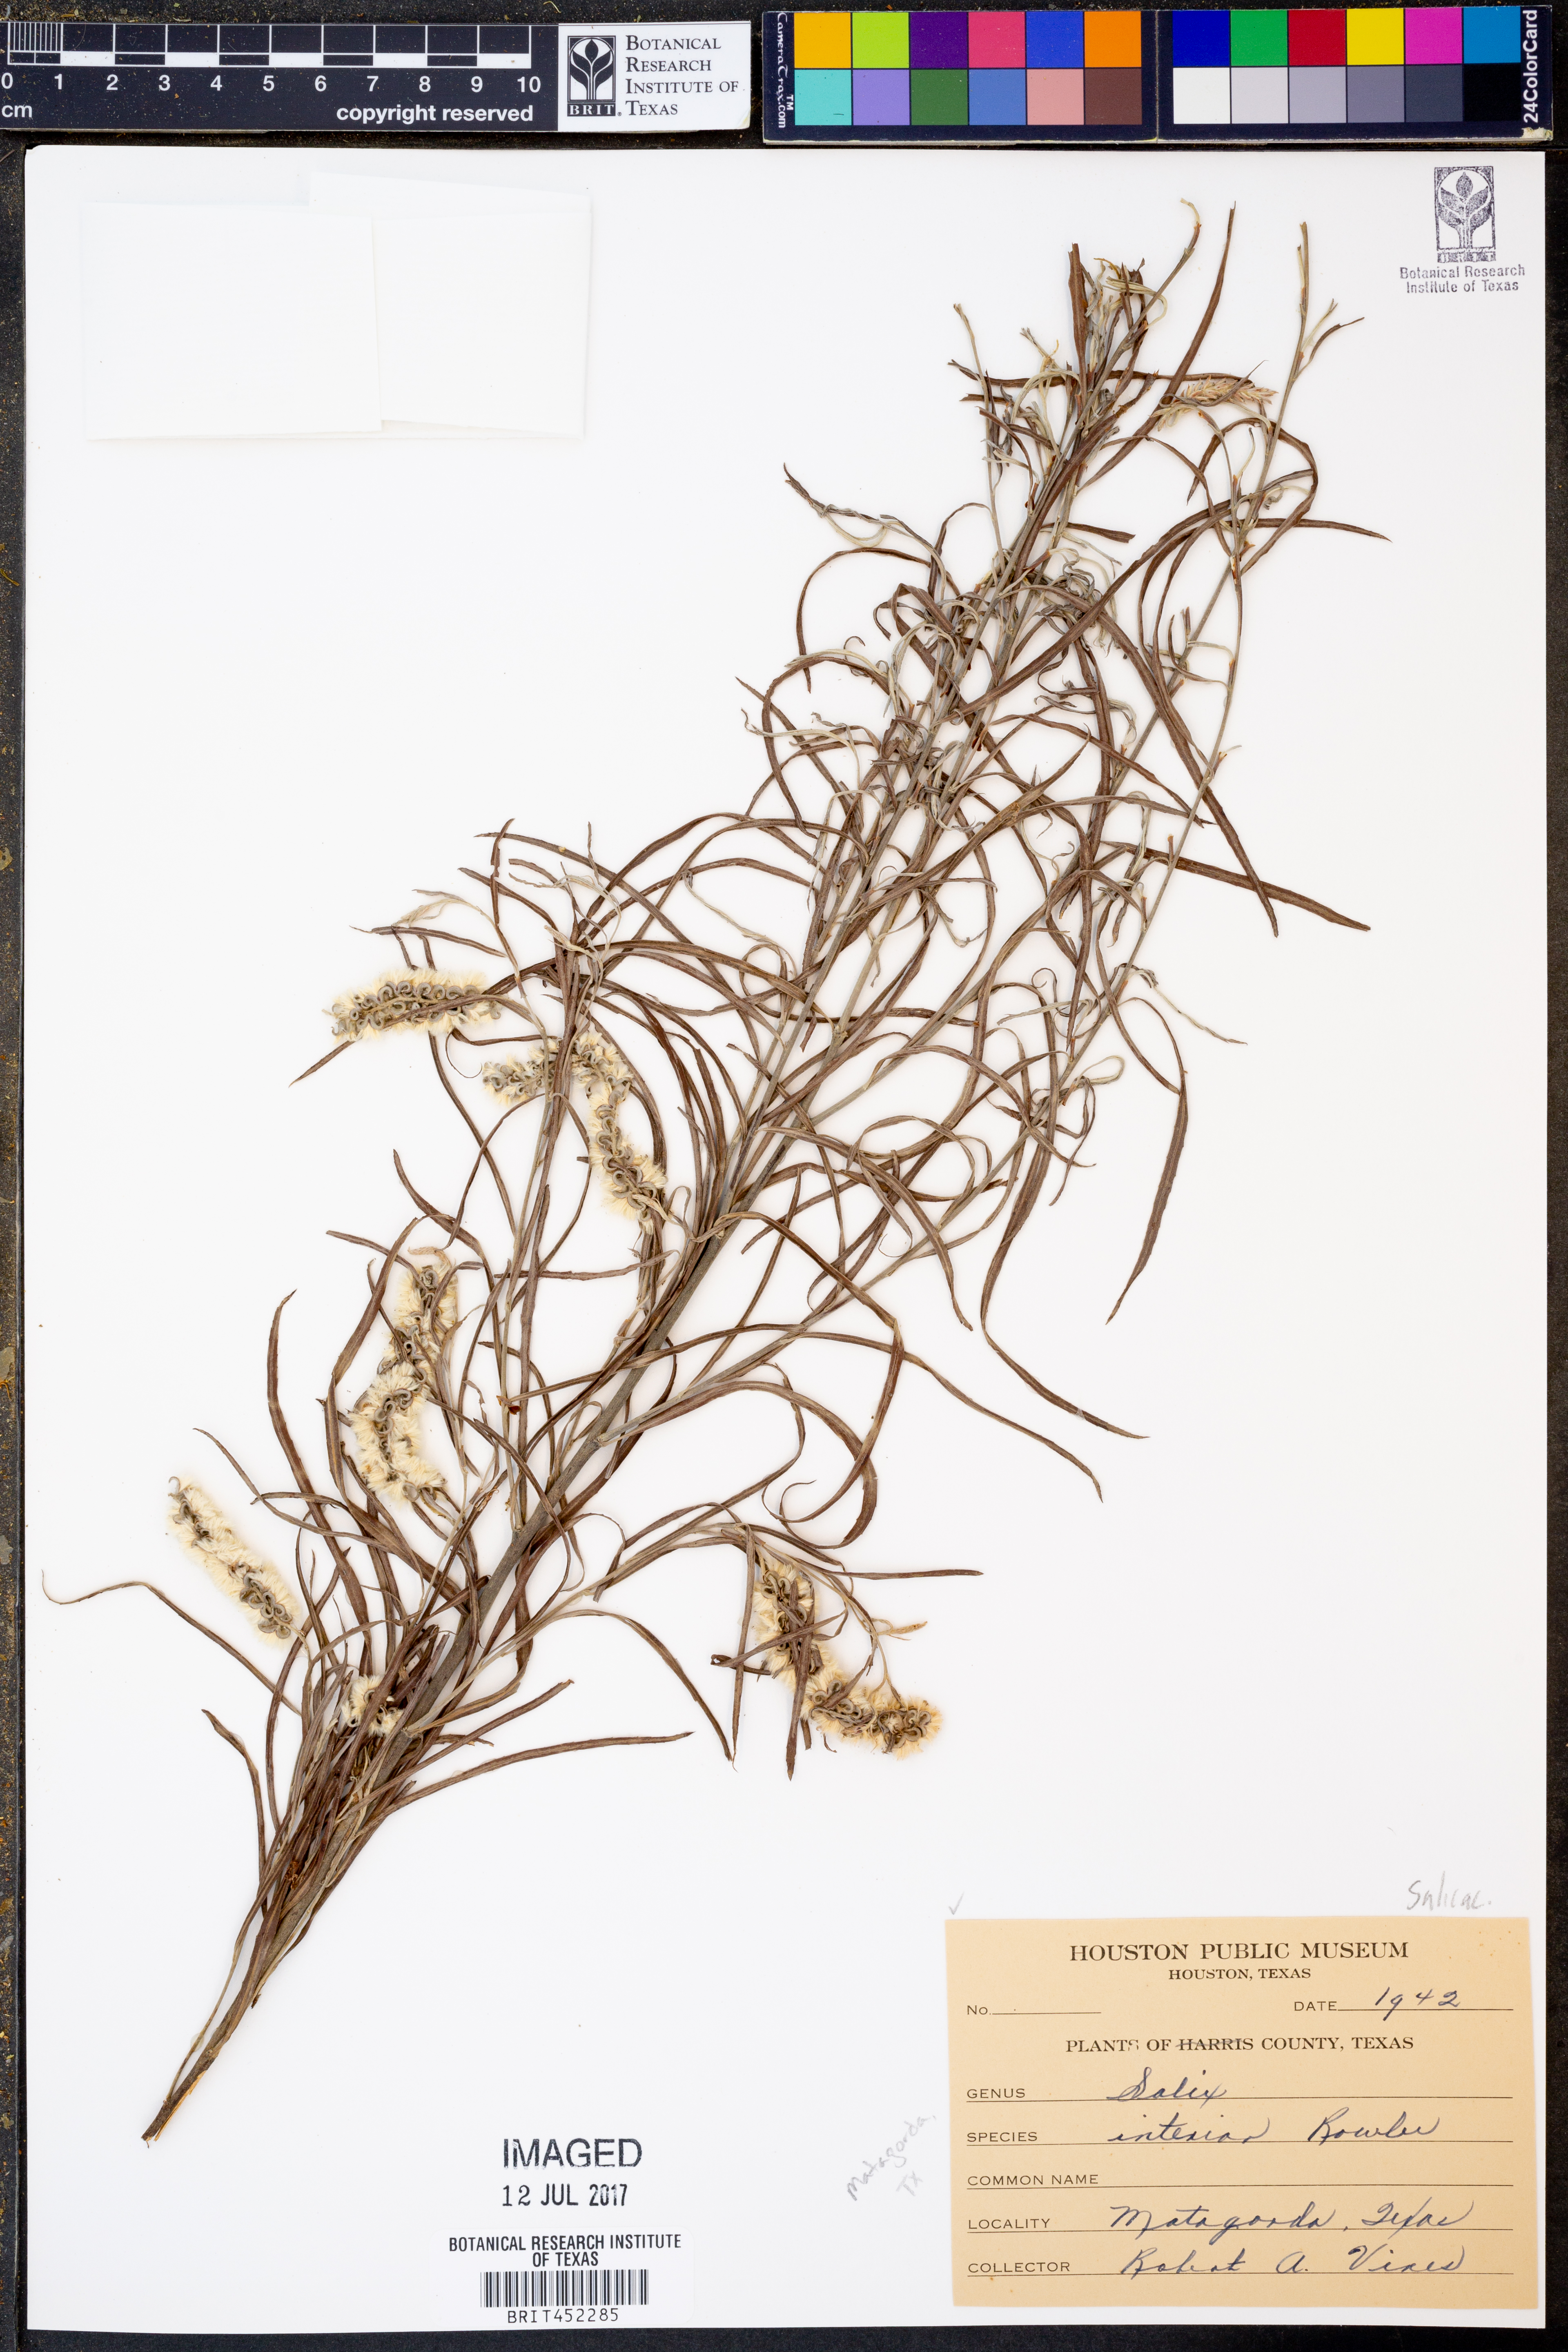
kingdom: Plantae
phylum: Tracheophyta
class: Magnoliopsida
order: Malpighiales
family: Salicaceae
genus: Salix
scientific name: Salix interior
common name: Sandbar willow
